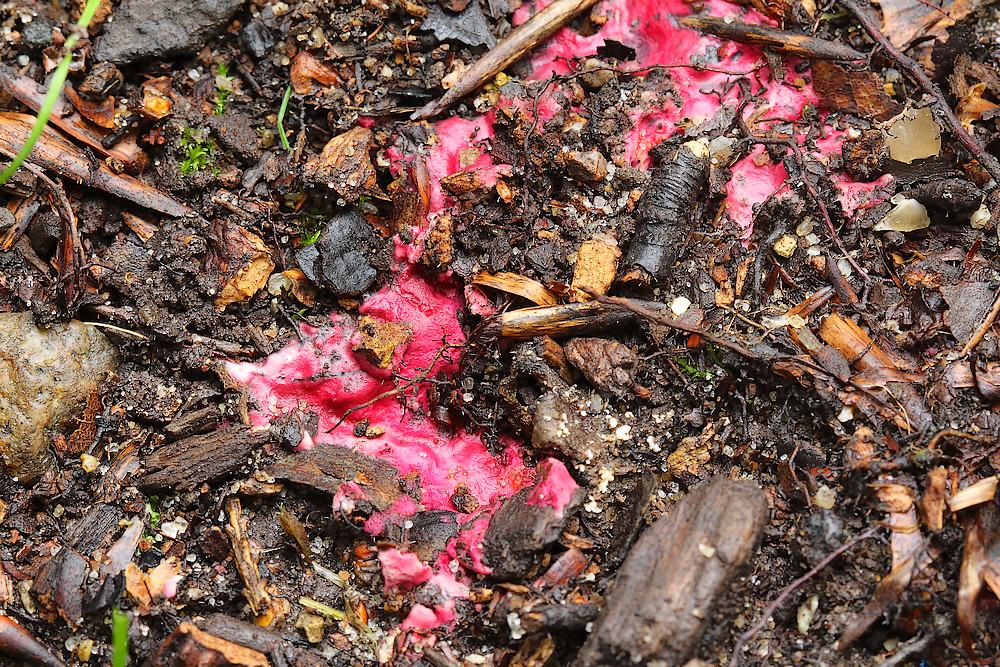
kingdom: Fungi
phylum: Ascomycota
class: Sordariomycetes
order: Hypocreales
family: Hypocreaceae
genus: Hypomyces
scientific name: Hypomyces rosellus
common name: rosa snylteskorpe
